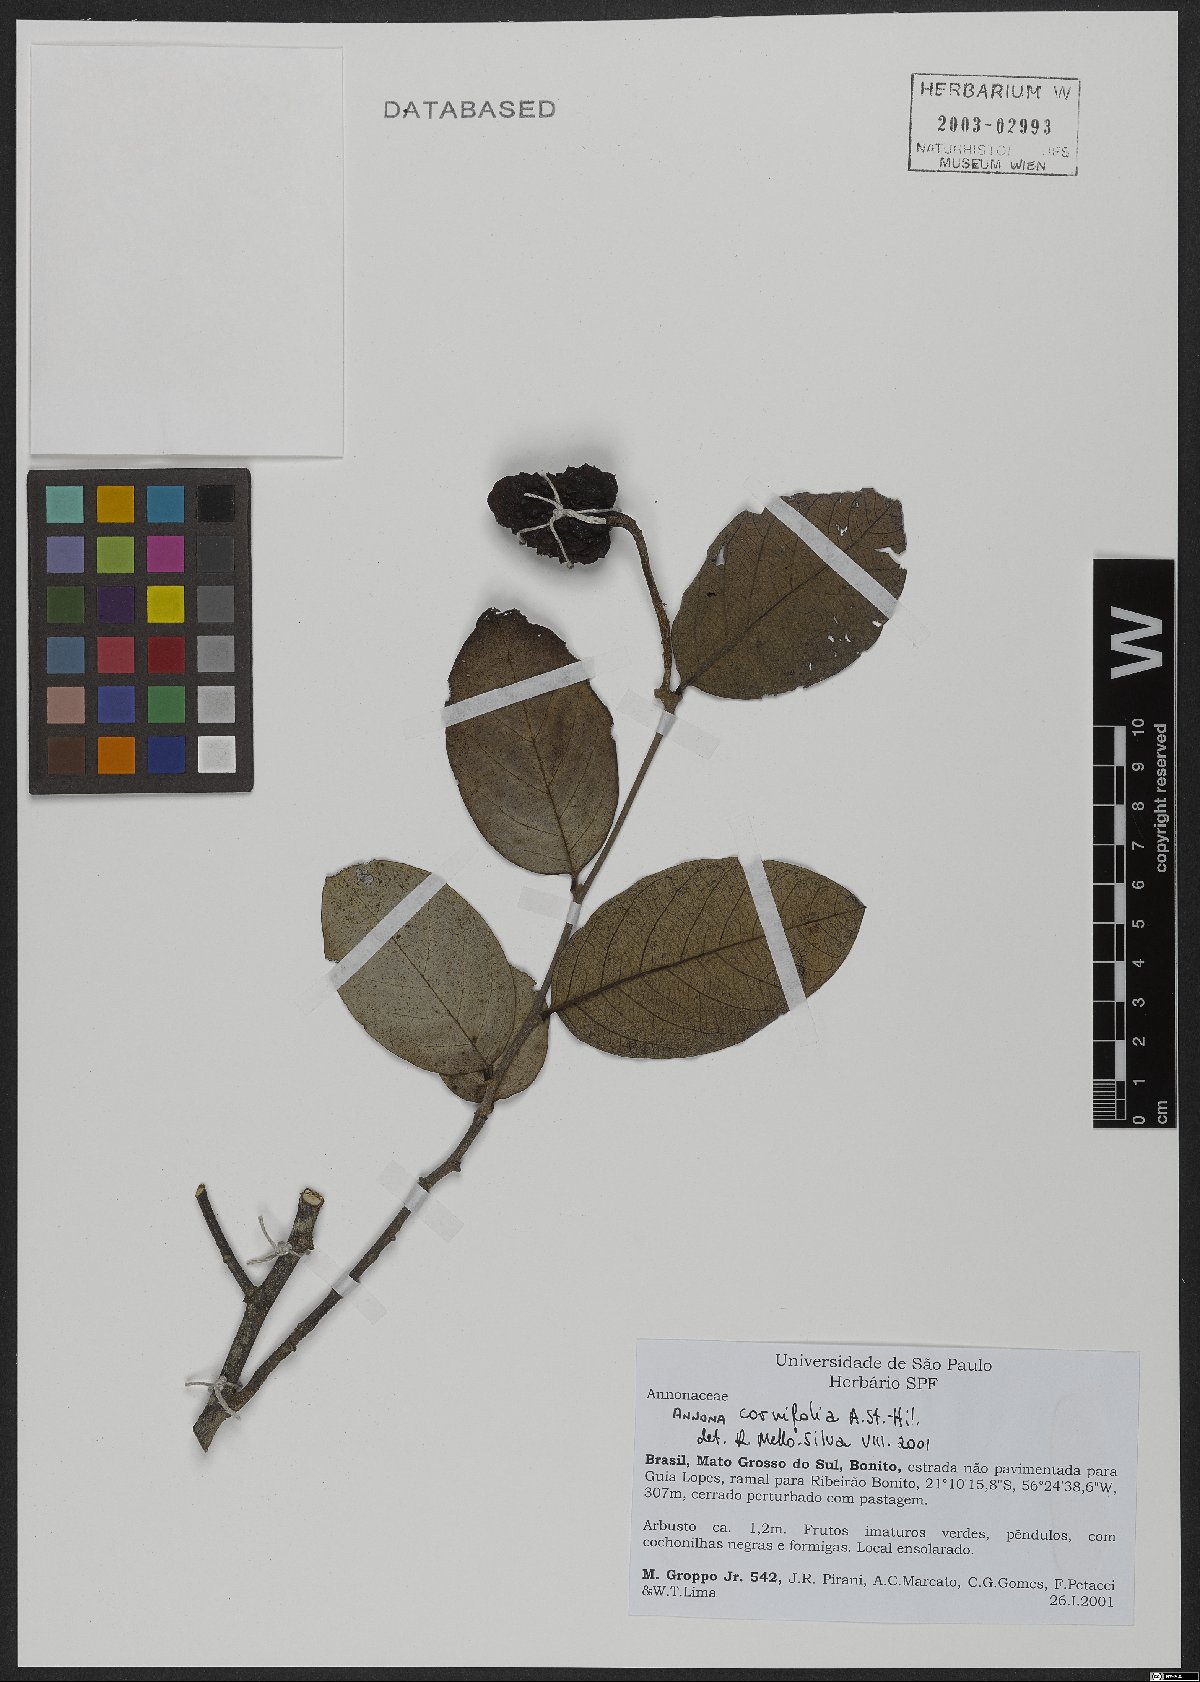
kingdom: Plantae
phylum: Tracheophyta
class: Magnoliopsida
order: Magnoliales
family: Annonaceae
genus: Annona
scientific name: Annona cornifolia
